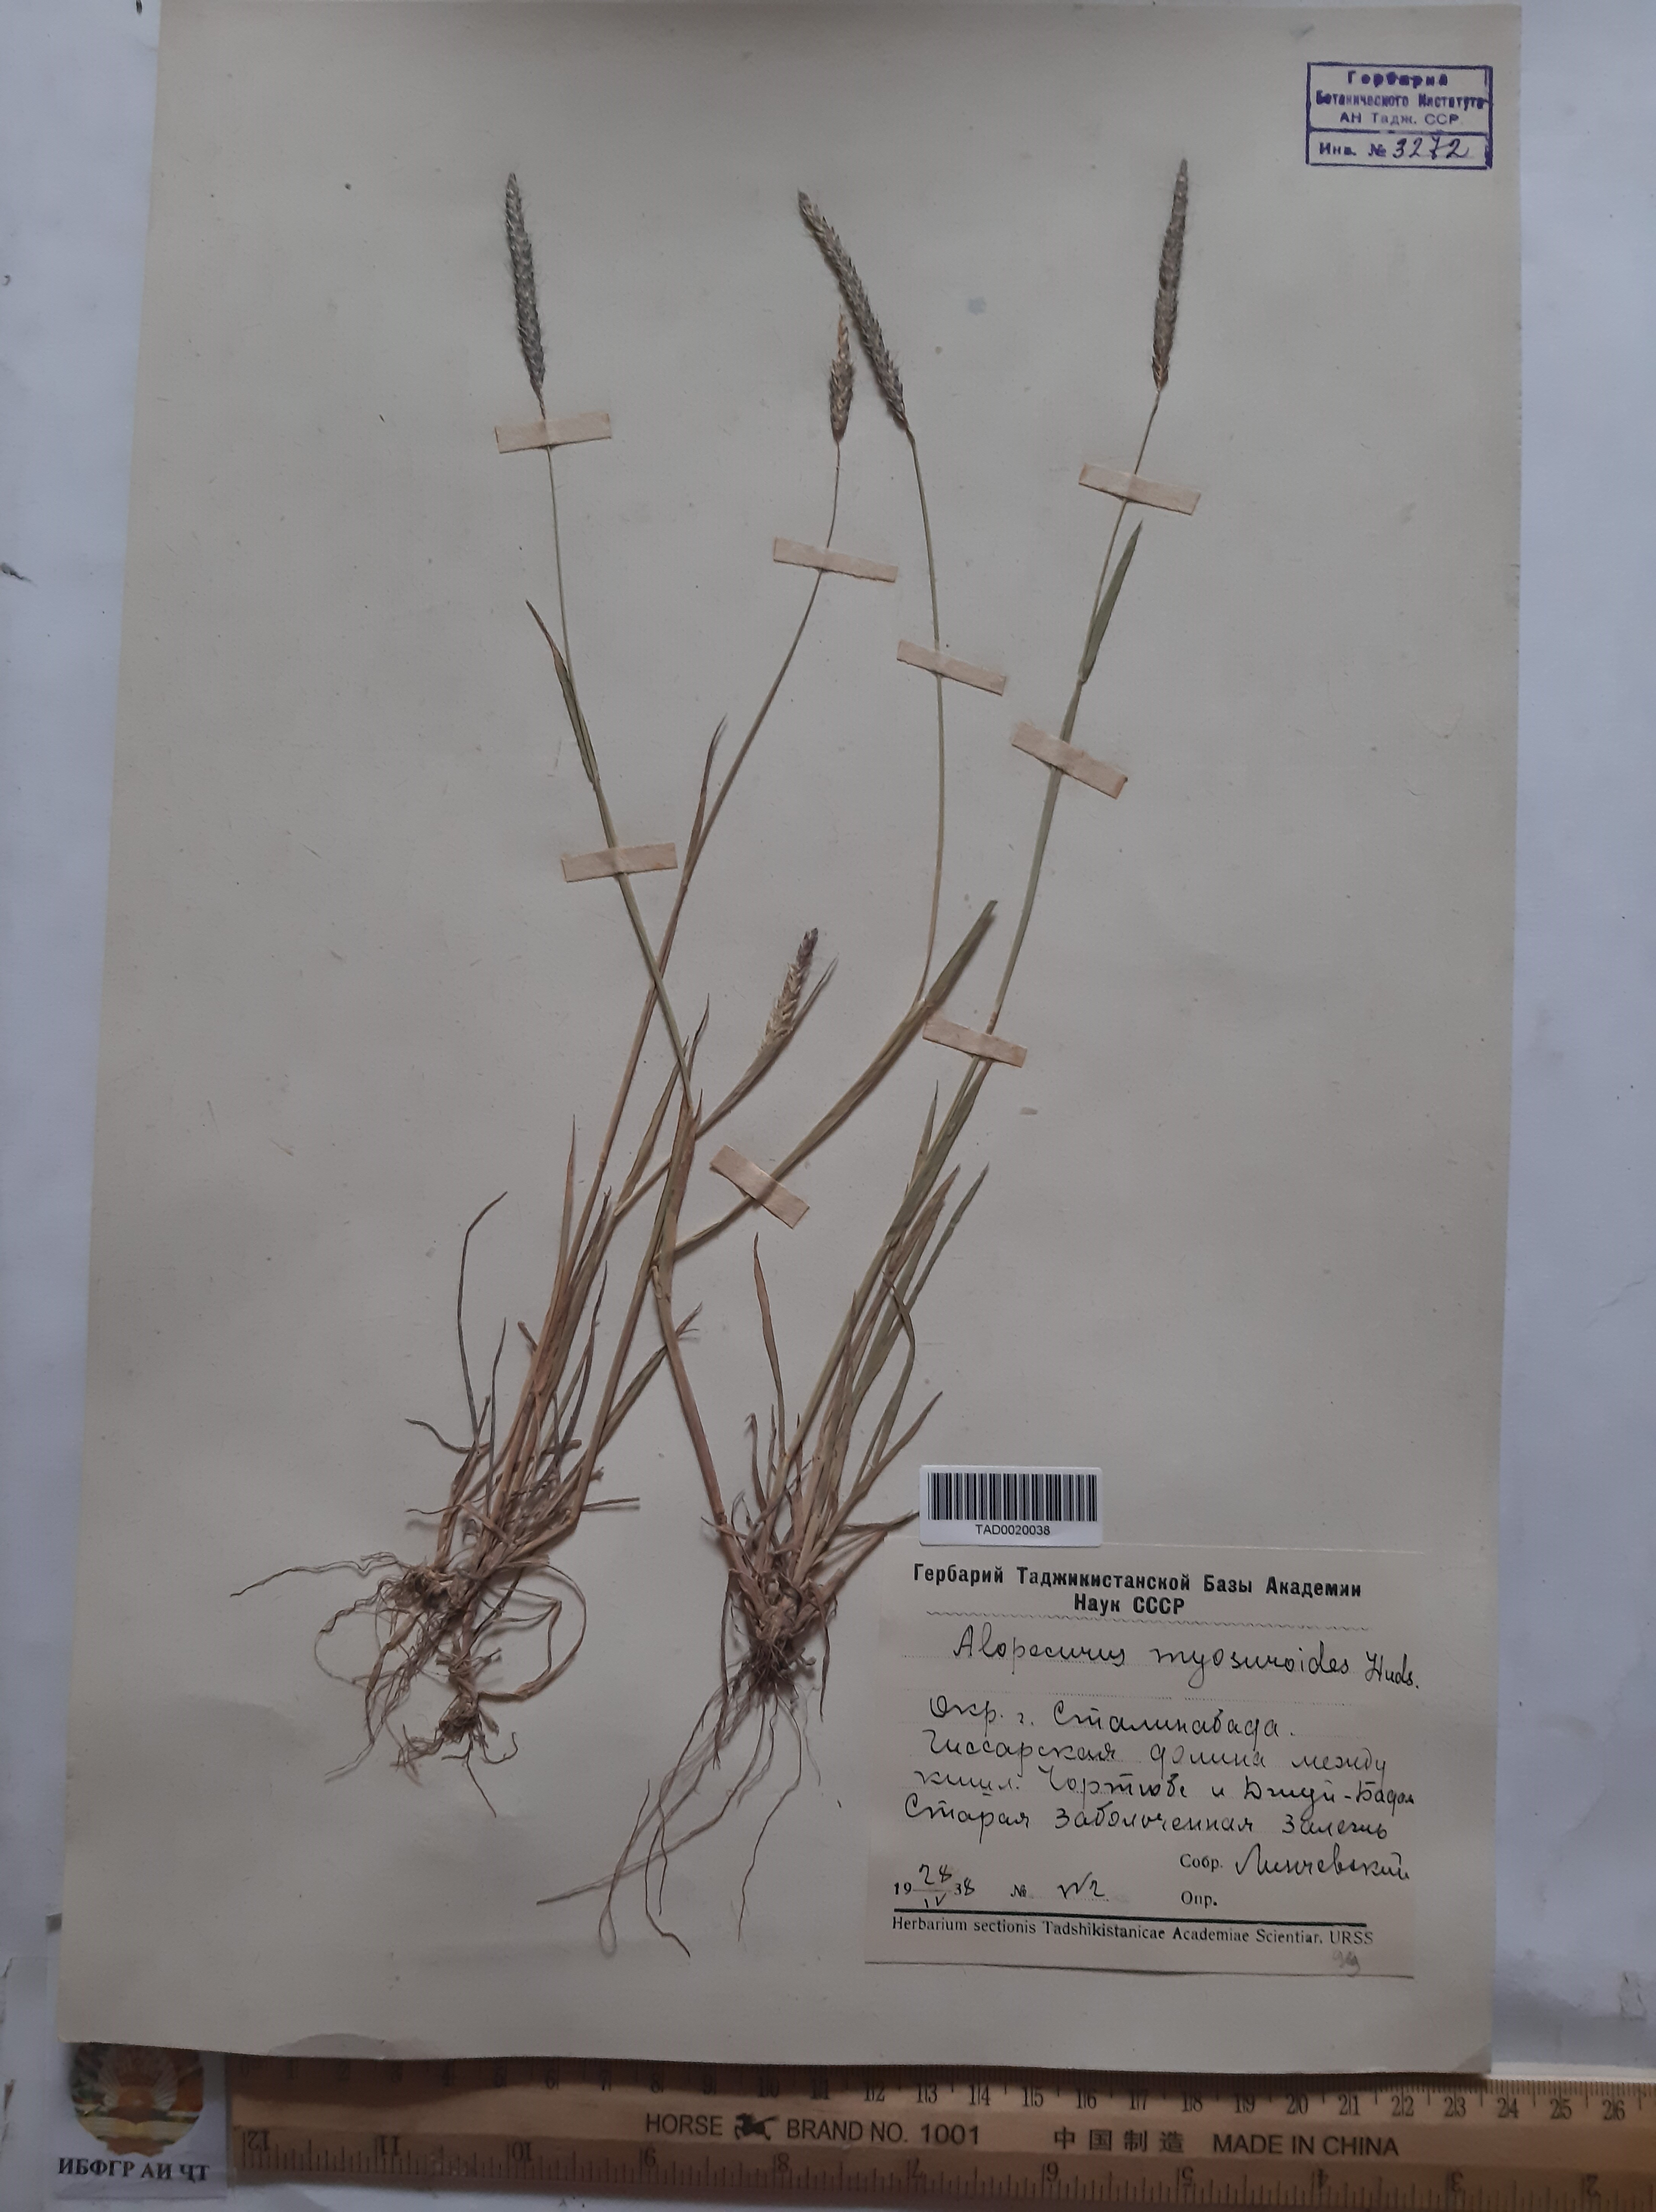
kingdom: Plantae
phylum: Tracheophyta
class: Liliopsida
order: Poales
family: Poaceae
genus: Alopecurus
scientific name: Alopecurus myosuroides
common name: Black-grass
